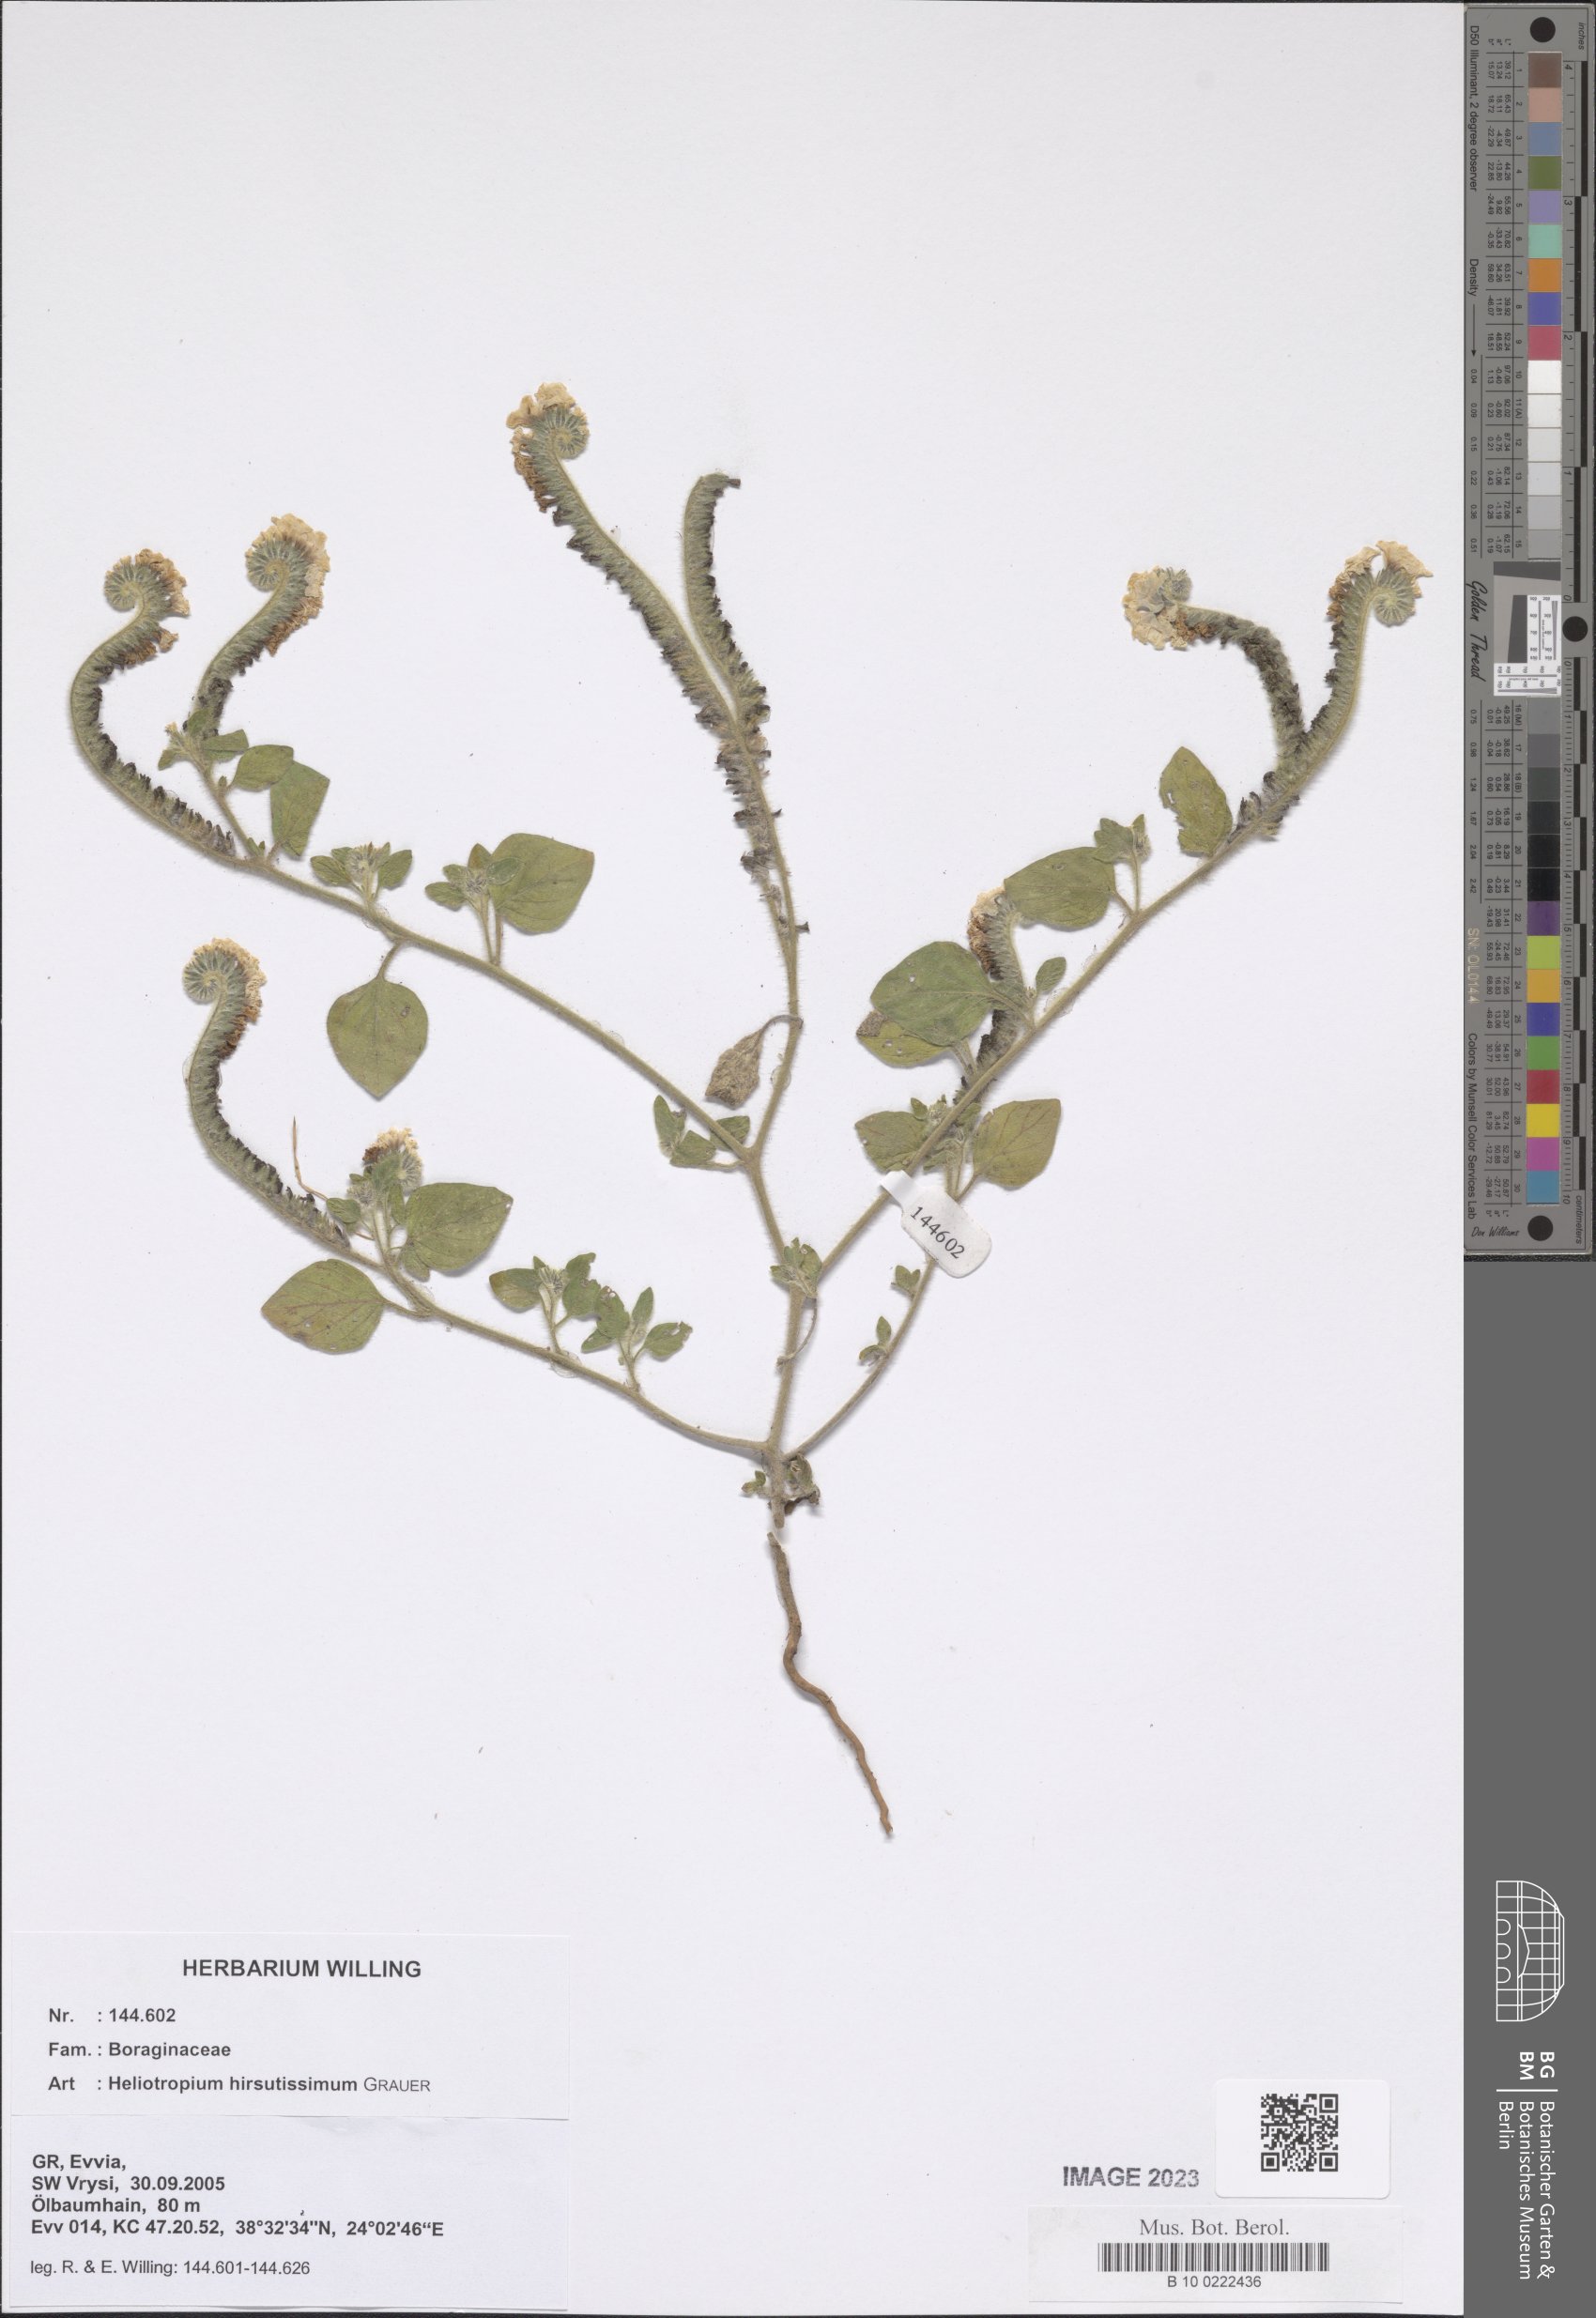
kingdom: Plantae
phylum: Tracheophyta
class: Magnoliopsida
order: Boraginales
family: Heliotropiaceae
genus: Heliotropium
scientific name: Heliotropium hirsutissimum
